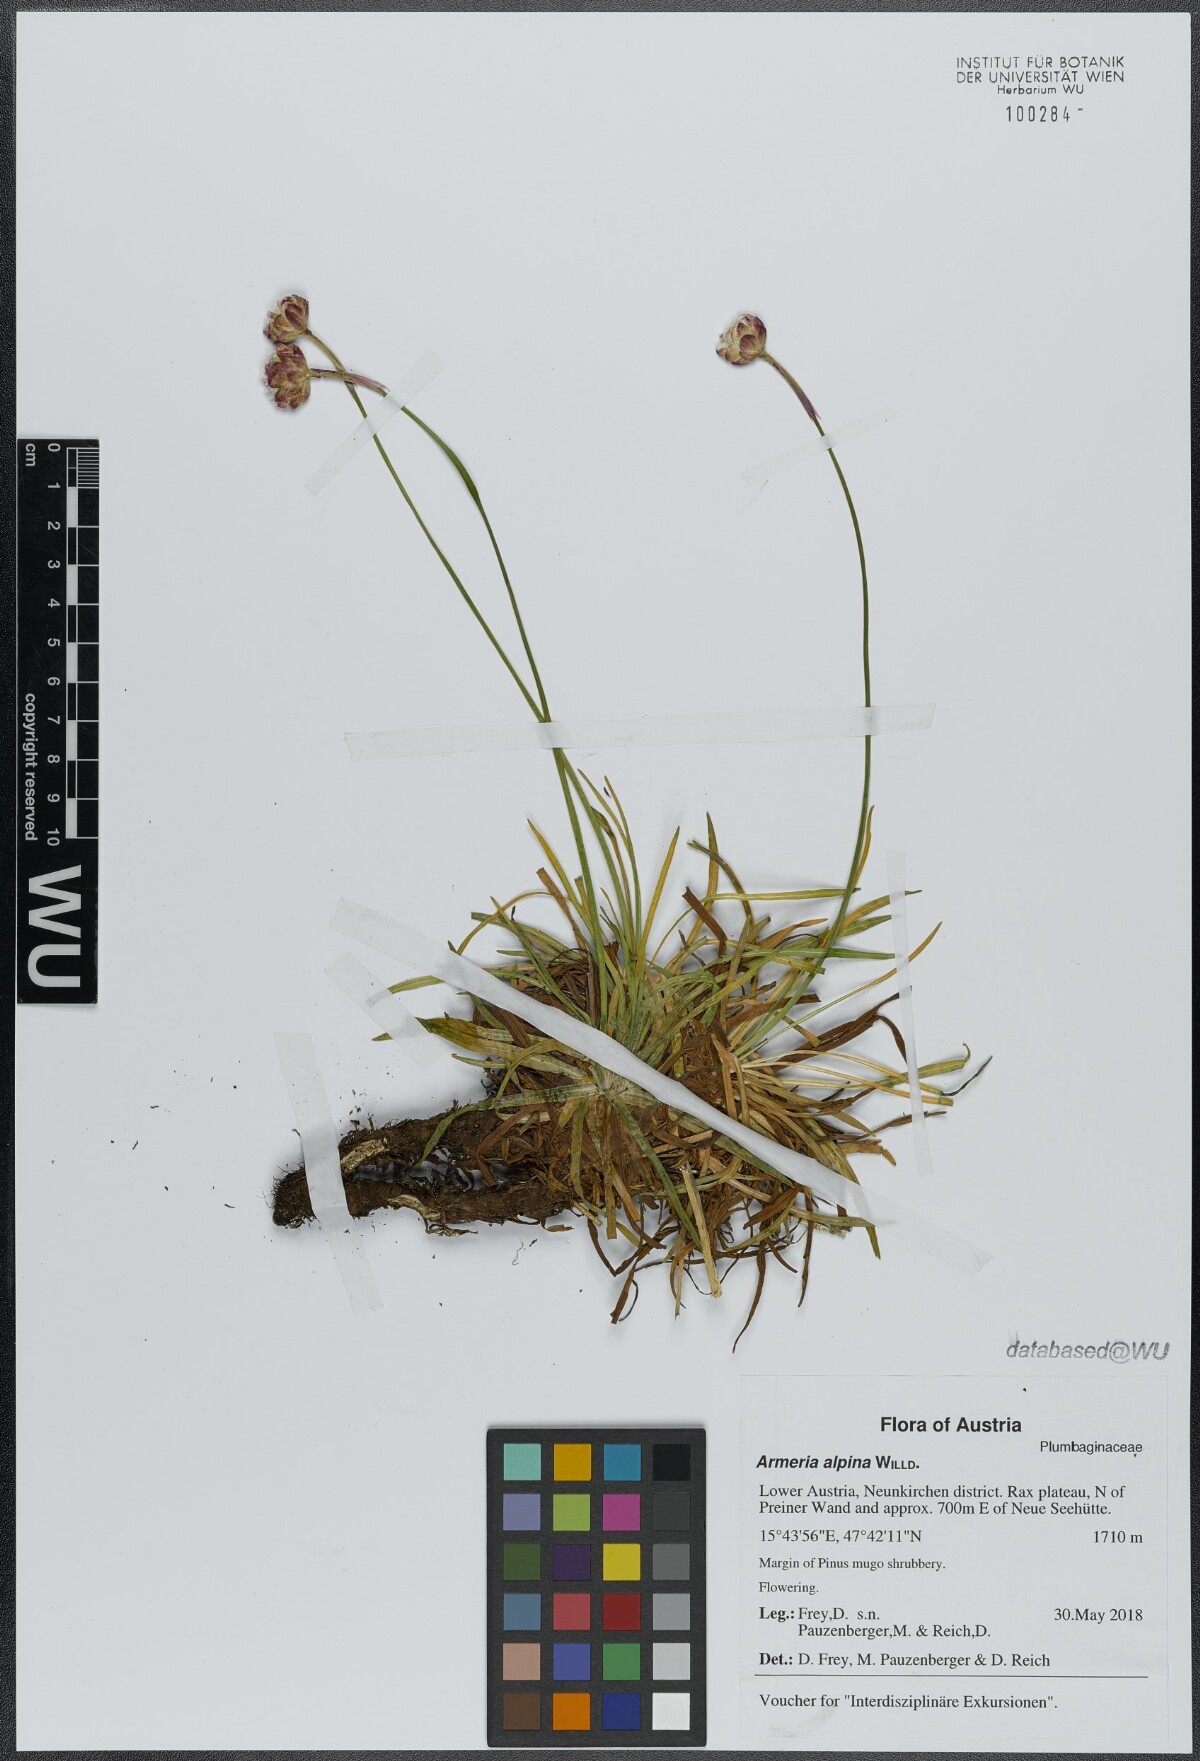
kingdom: Plantae
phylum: Tracheophyta
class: Magnoliopsida
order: Caryophyllales
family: Plumbaginaceae
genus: Armeria
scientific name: Armeria alpina
